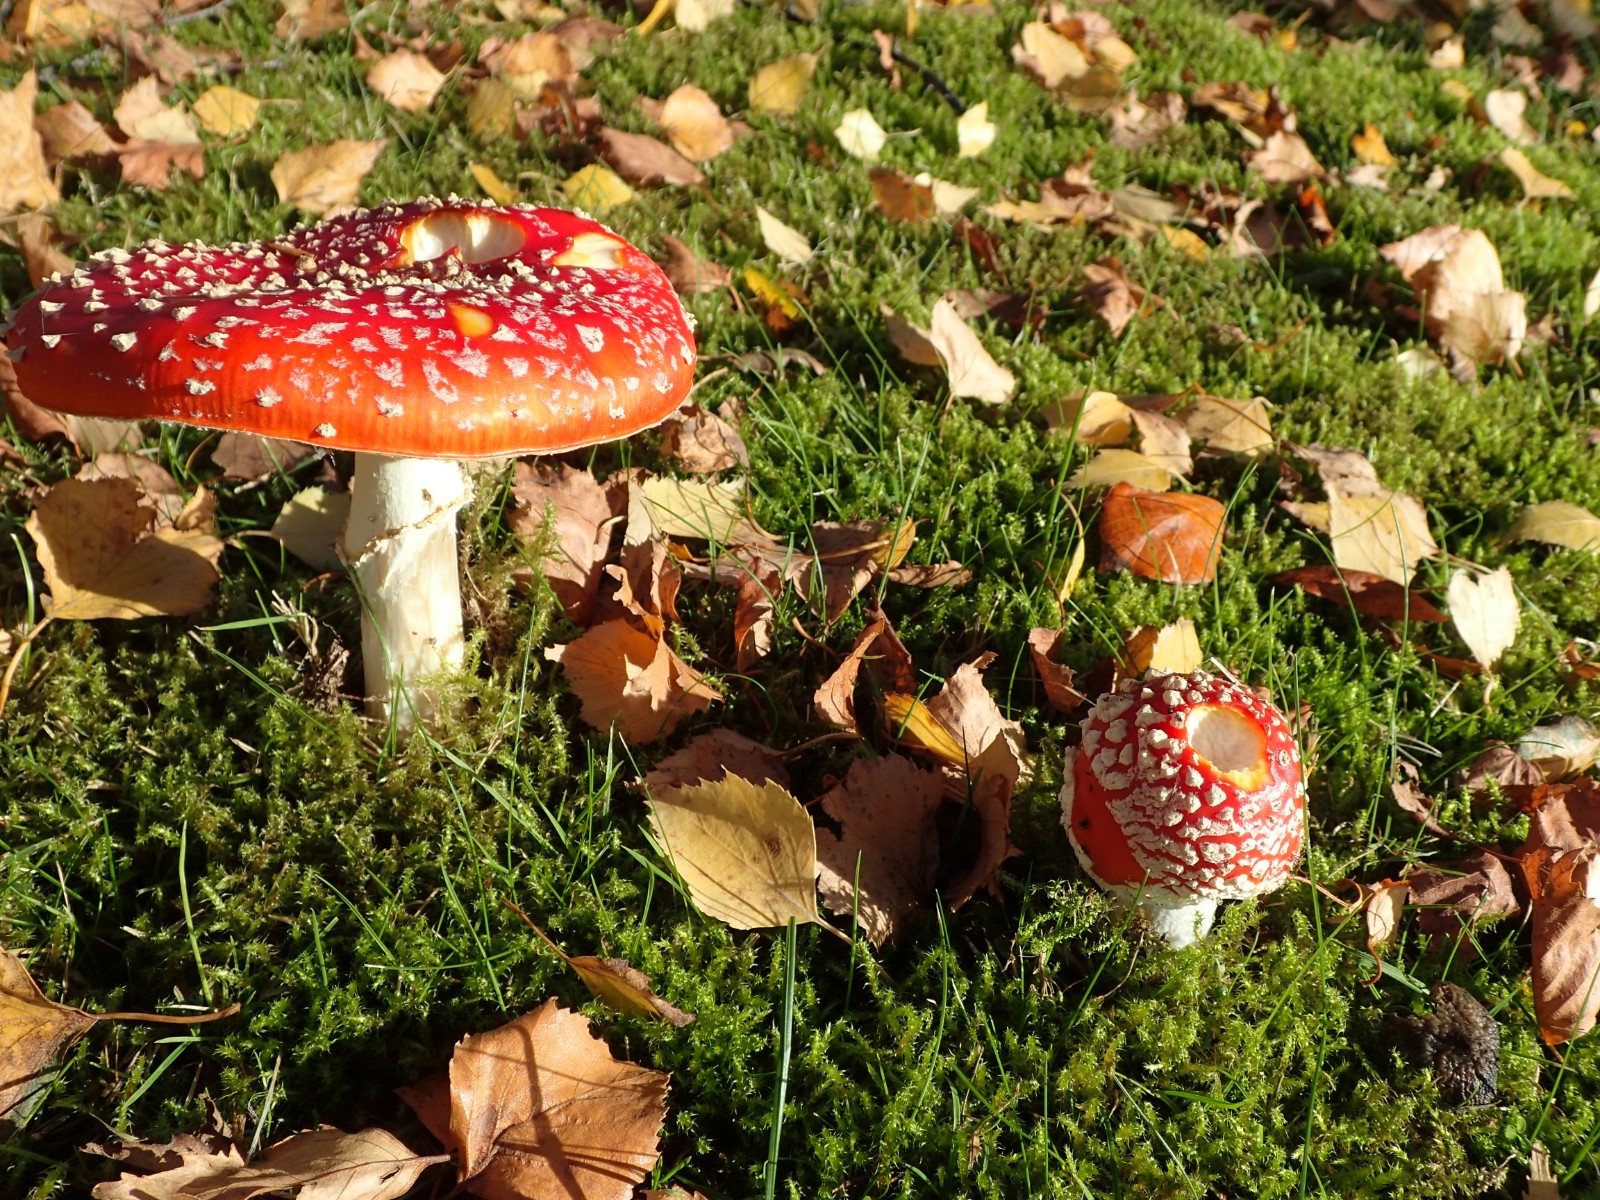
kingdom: Fungi
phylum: Basidiomycota
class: Agaricomycetes
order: Agaricales
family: Amanitaceae
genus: Amanita
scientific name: Amanita muscaria
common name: rød fluesvamp
